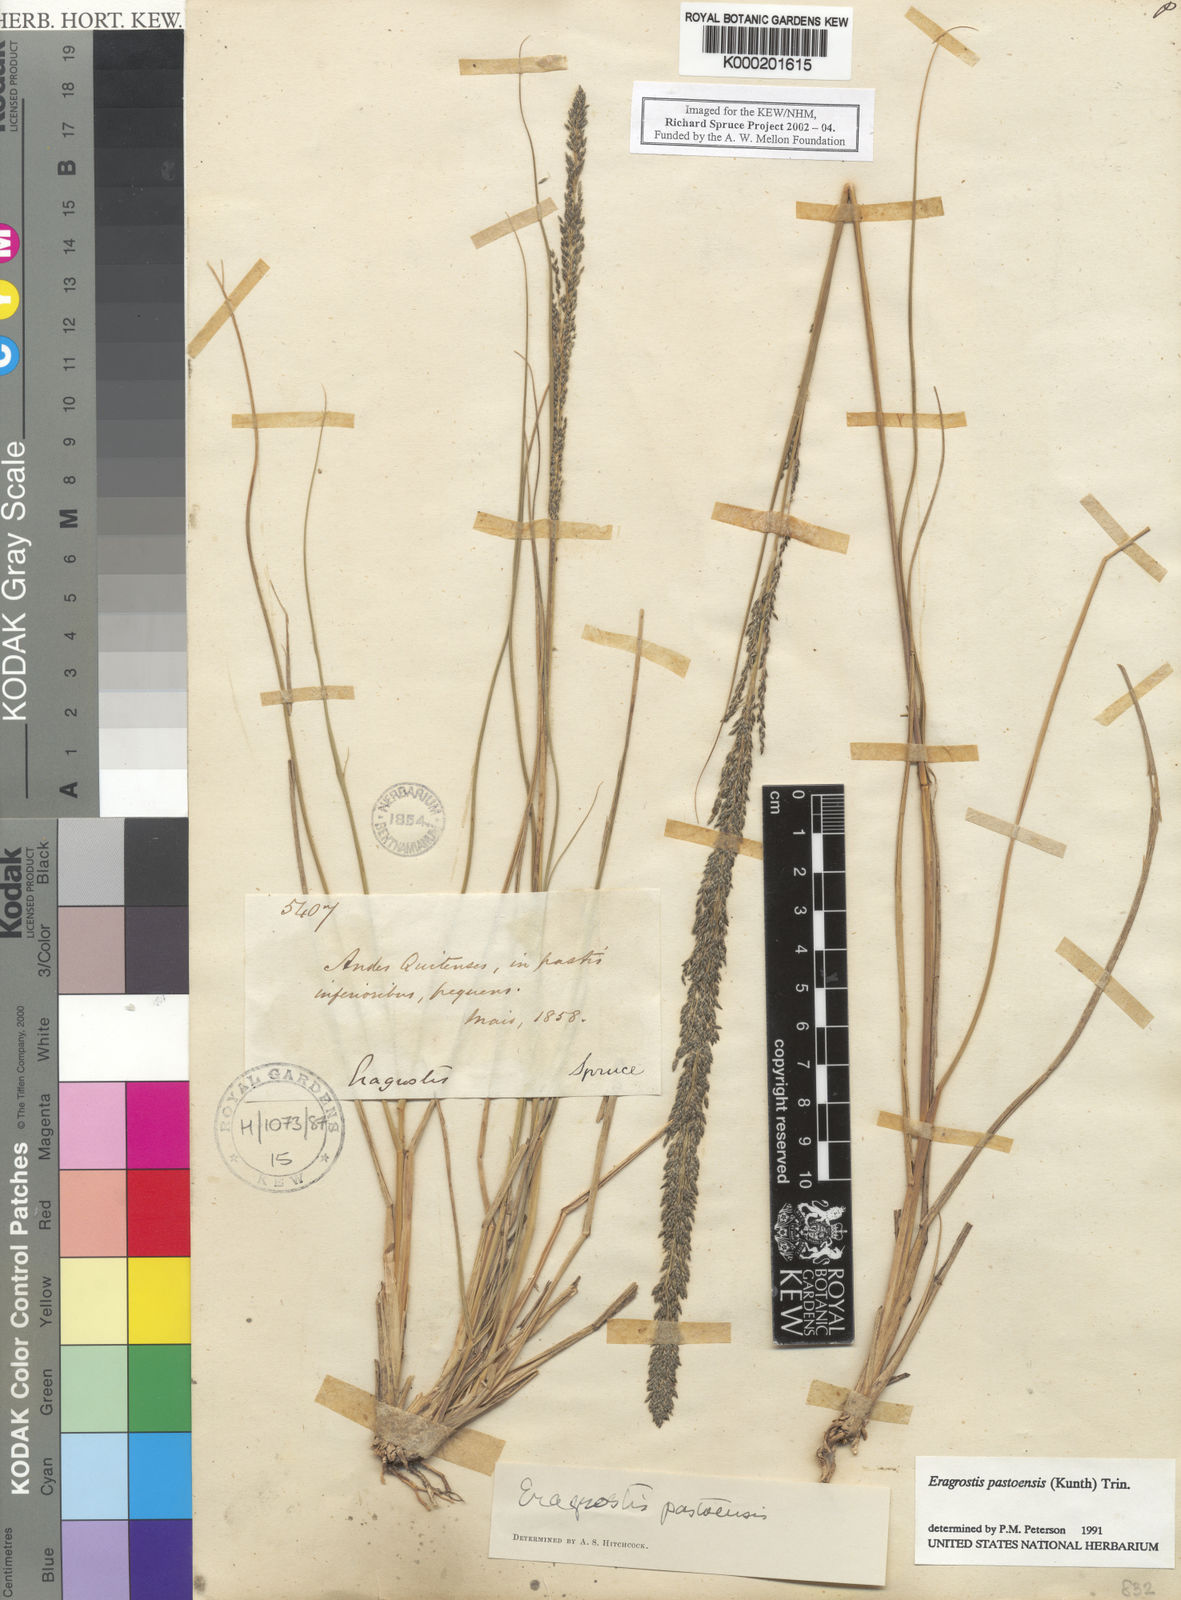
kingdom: Plantae
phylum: Tracheophyta
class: Liliopsida
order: Poales
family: Poaceae
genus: Eragrostis
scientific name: Eragrostis pastoensis
